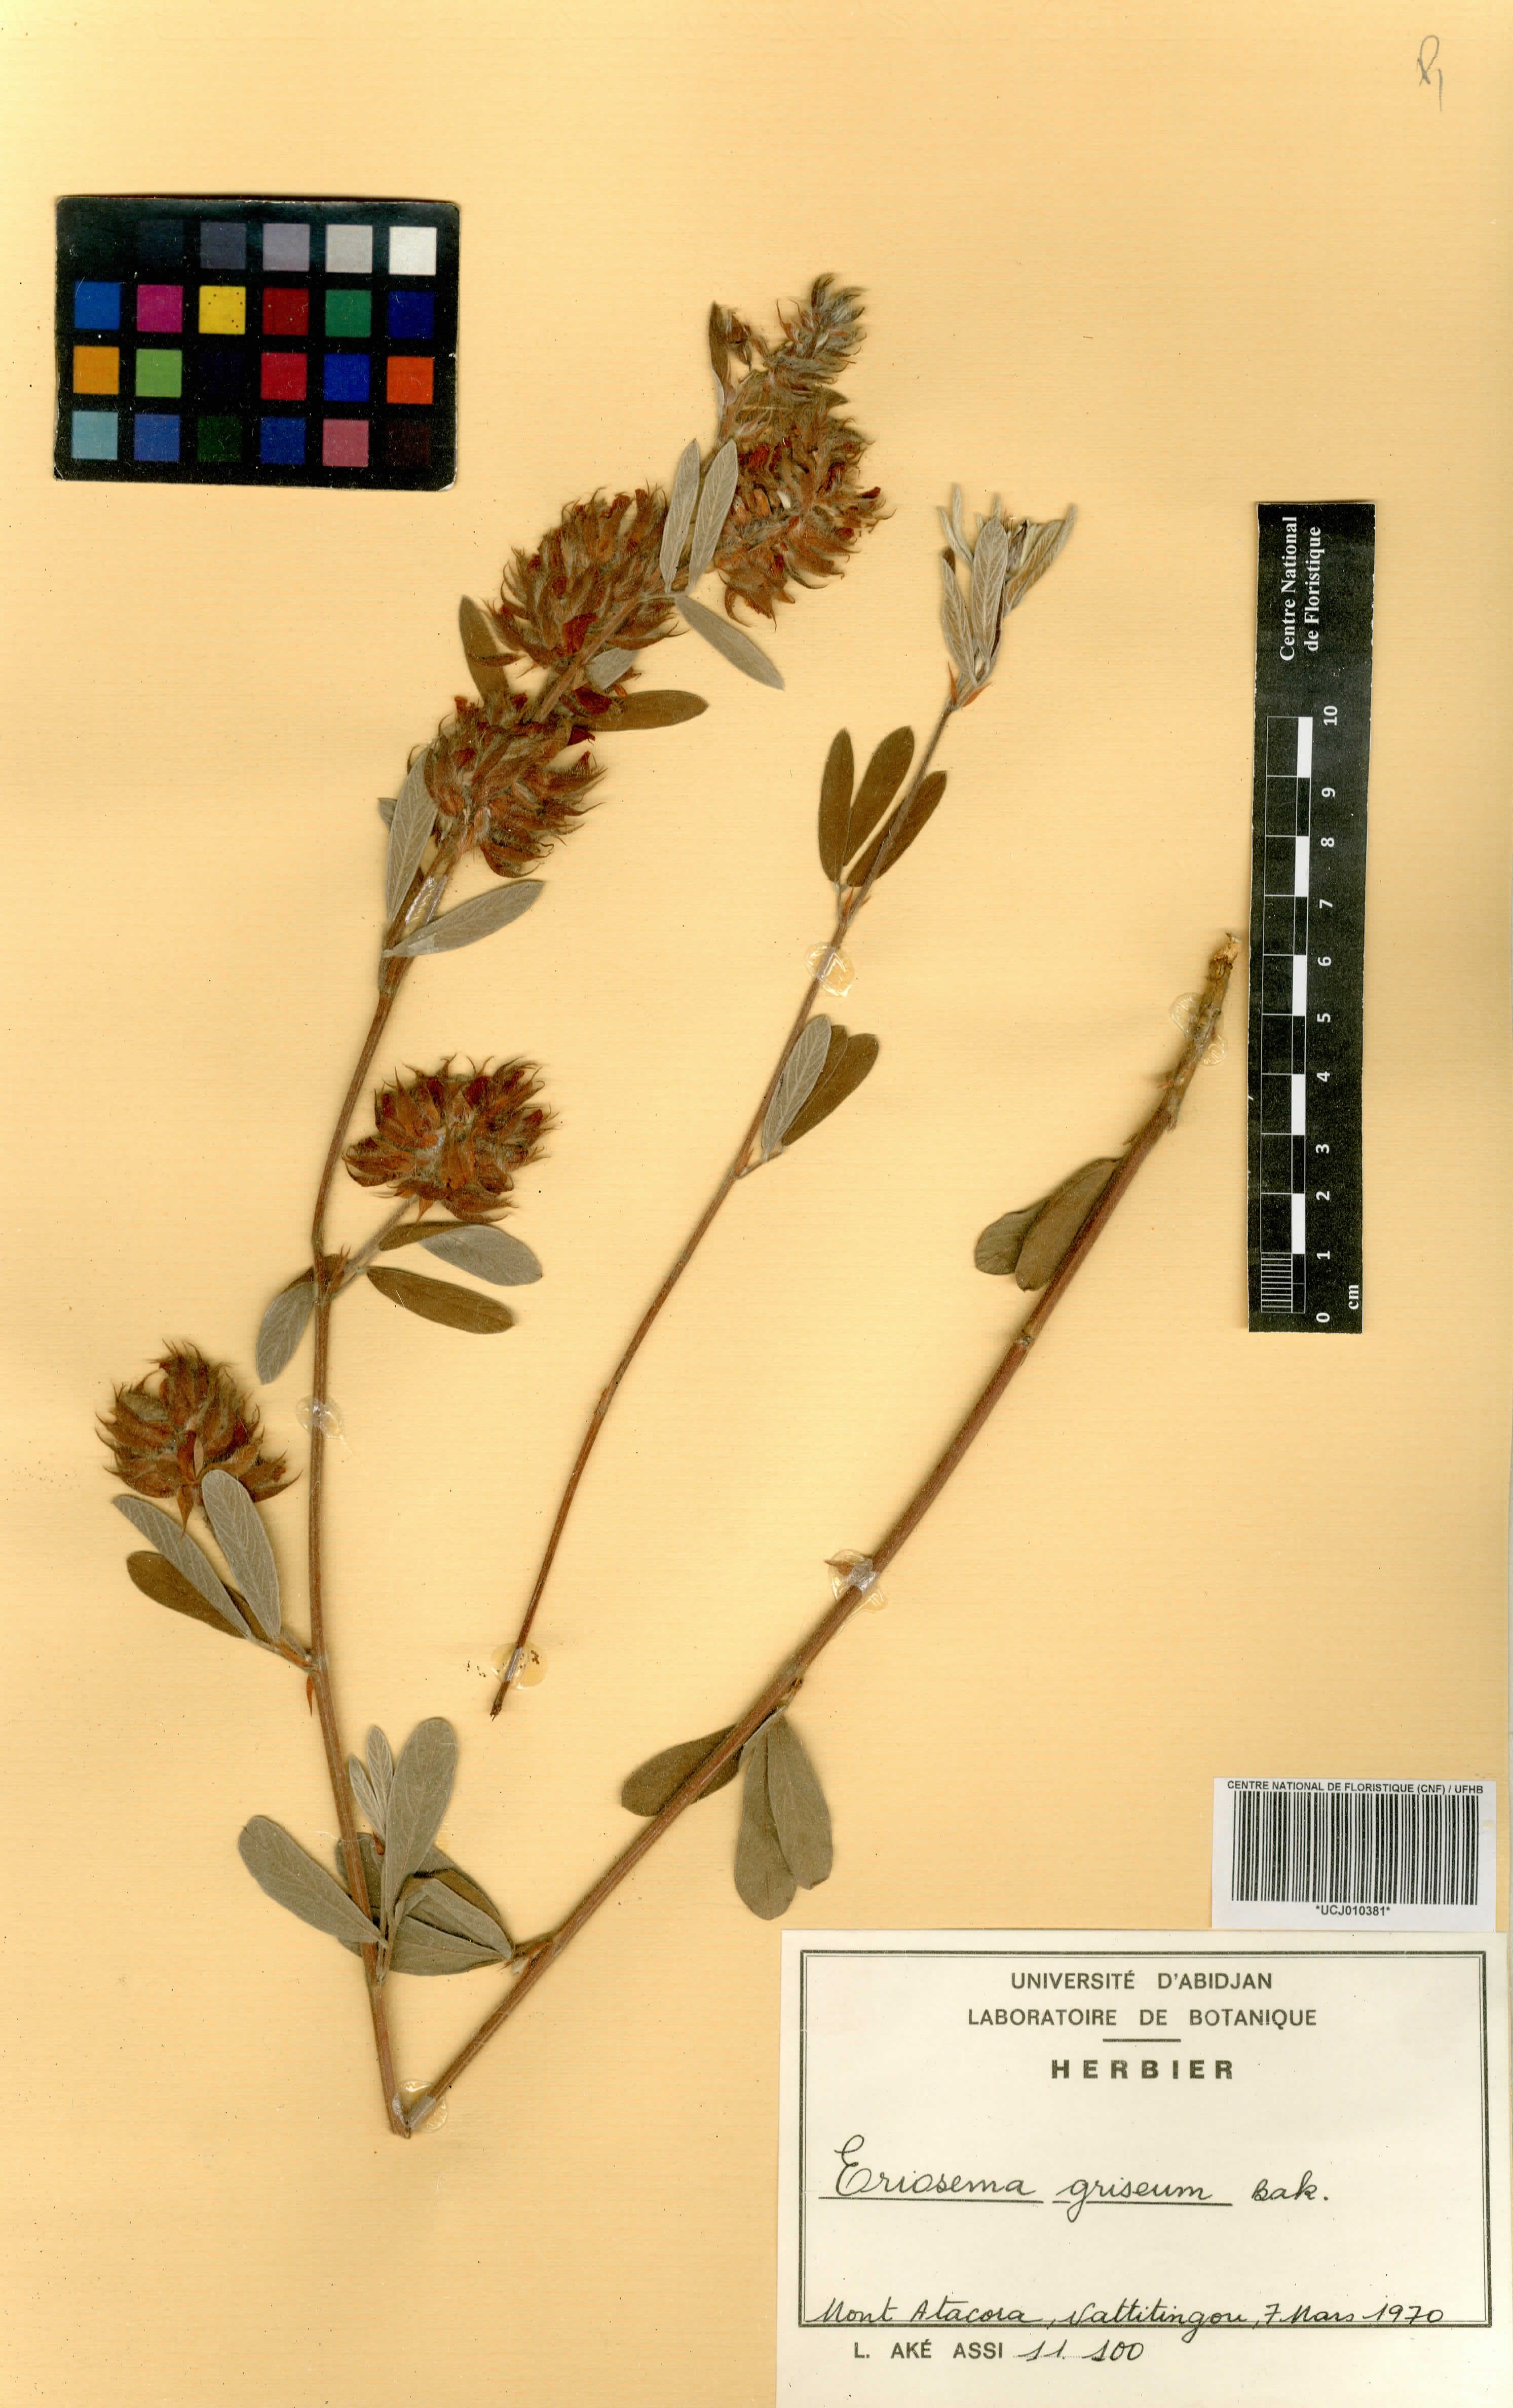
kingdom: Plantae
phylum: Tracheophyta
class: Magnoliopsida
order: Fabales
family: Fabaceae
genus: Eriosema
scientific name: Eriosema griseum
